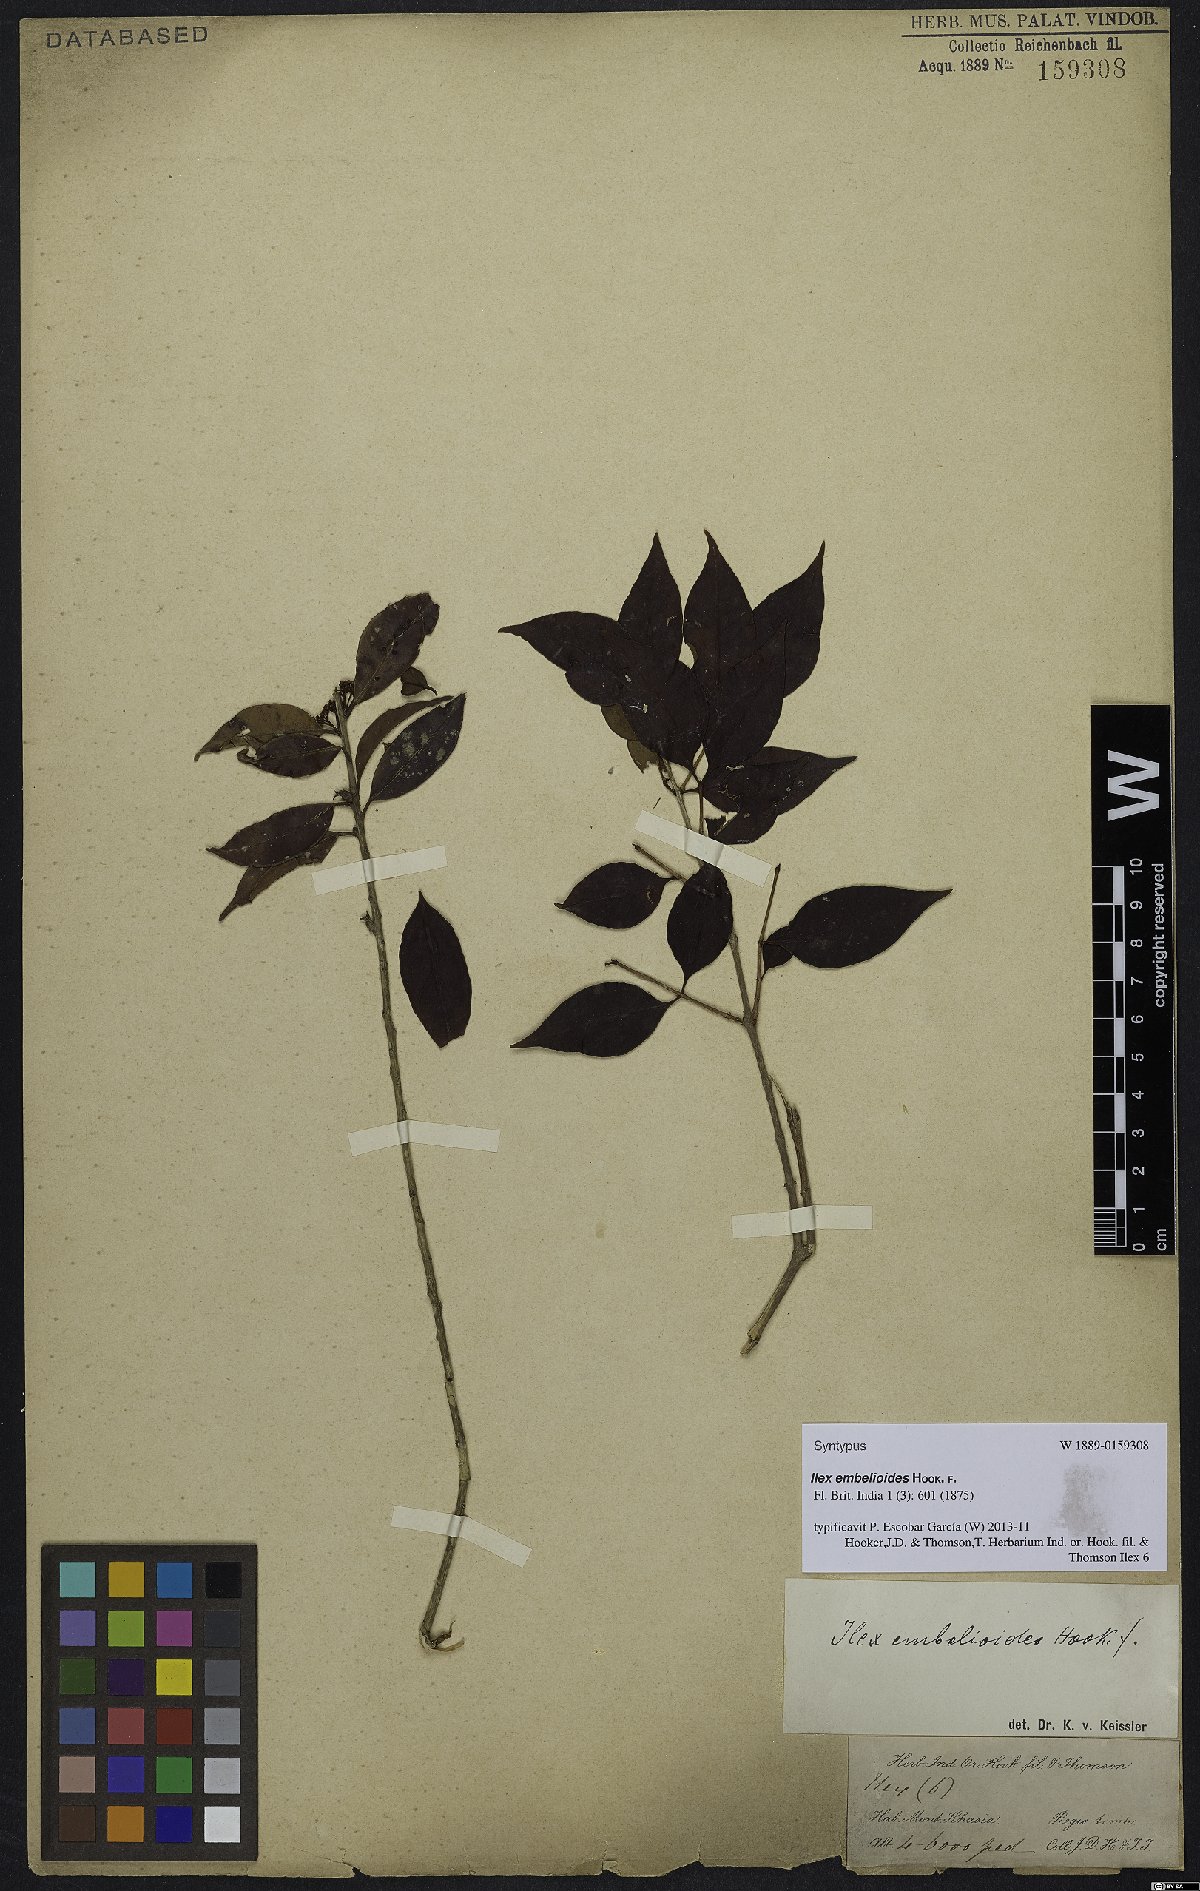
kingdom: Plantae
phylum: Tracheophyta
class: Magnoliopsida
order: Aquifoliales
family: Aquifoliaceae
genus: Ilex
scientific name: Ilex embelioides
